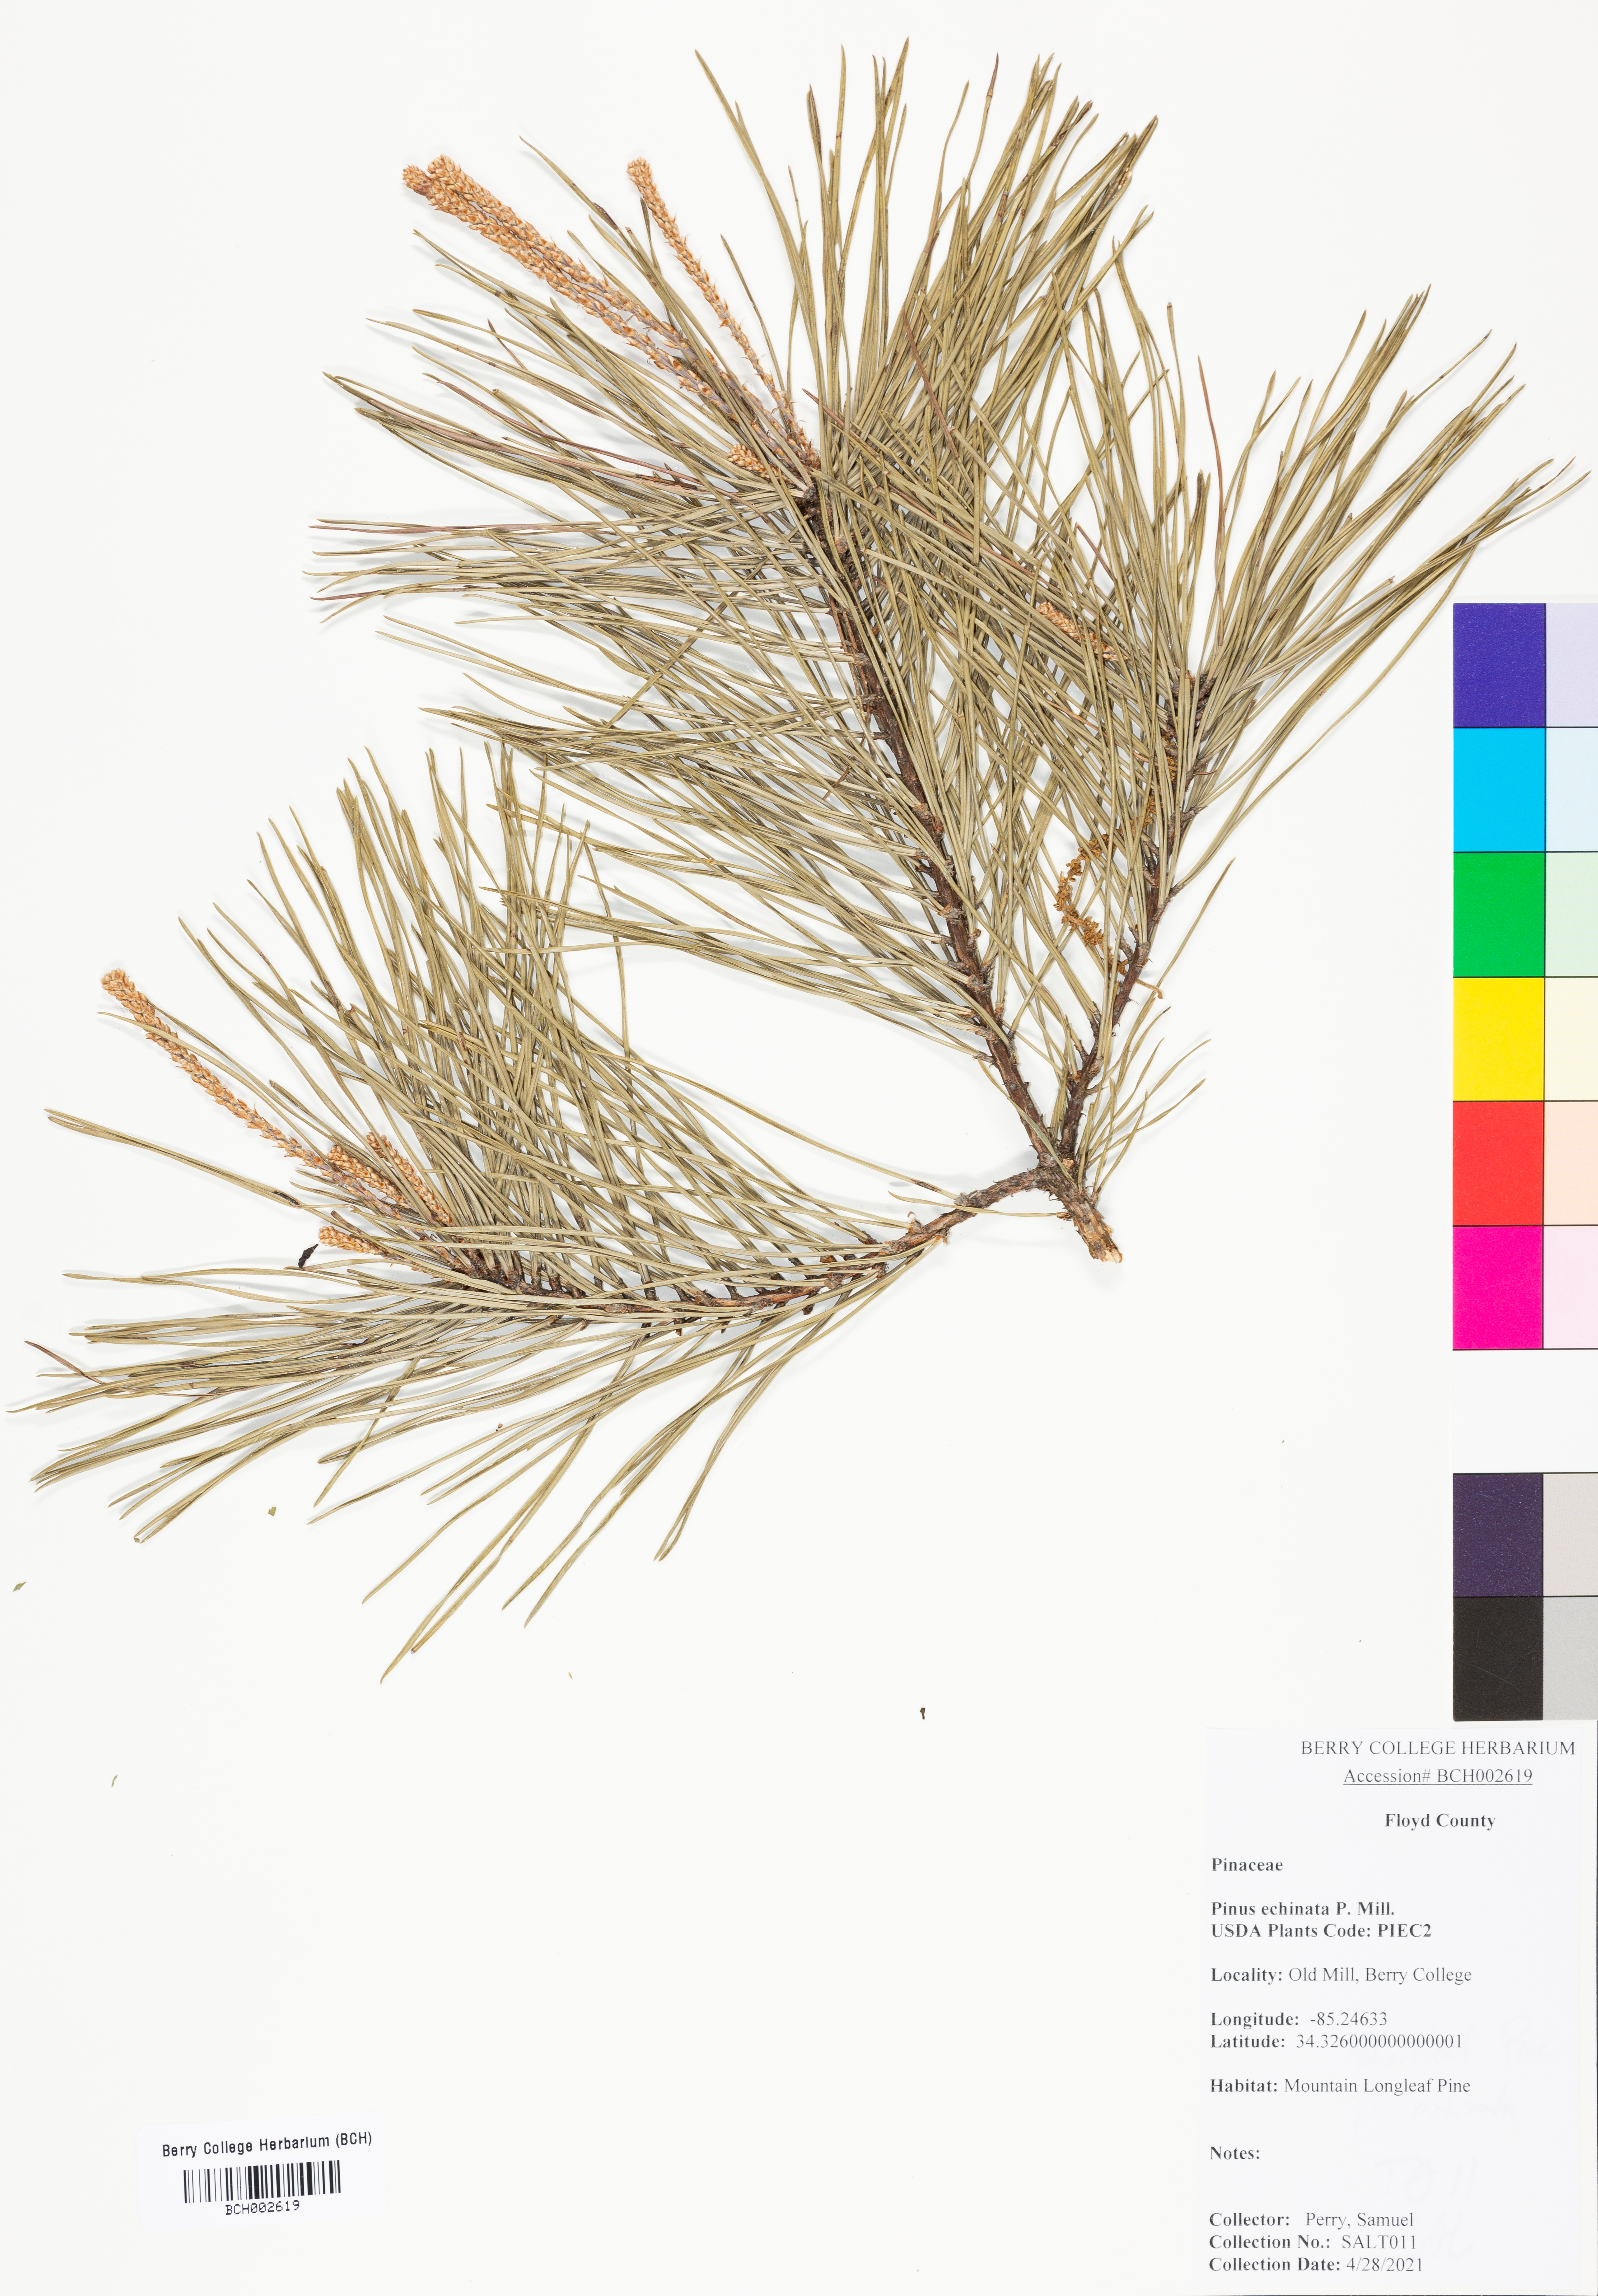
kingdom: Plantae
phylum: Tracheophyta
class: Pinopsida
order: Pinales
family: Pinaceae
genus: Pinus
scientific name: Pinus echinata
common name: Shortleaf pine
